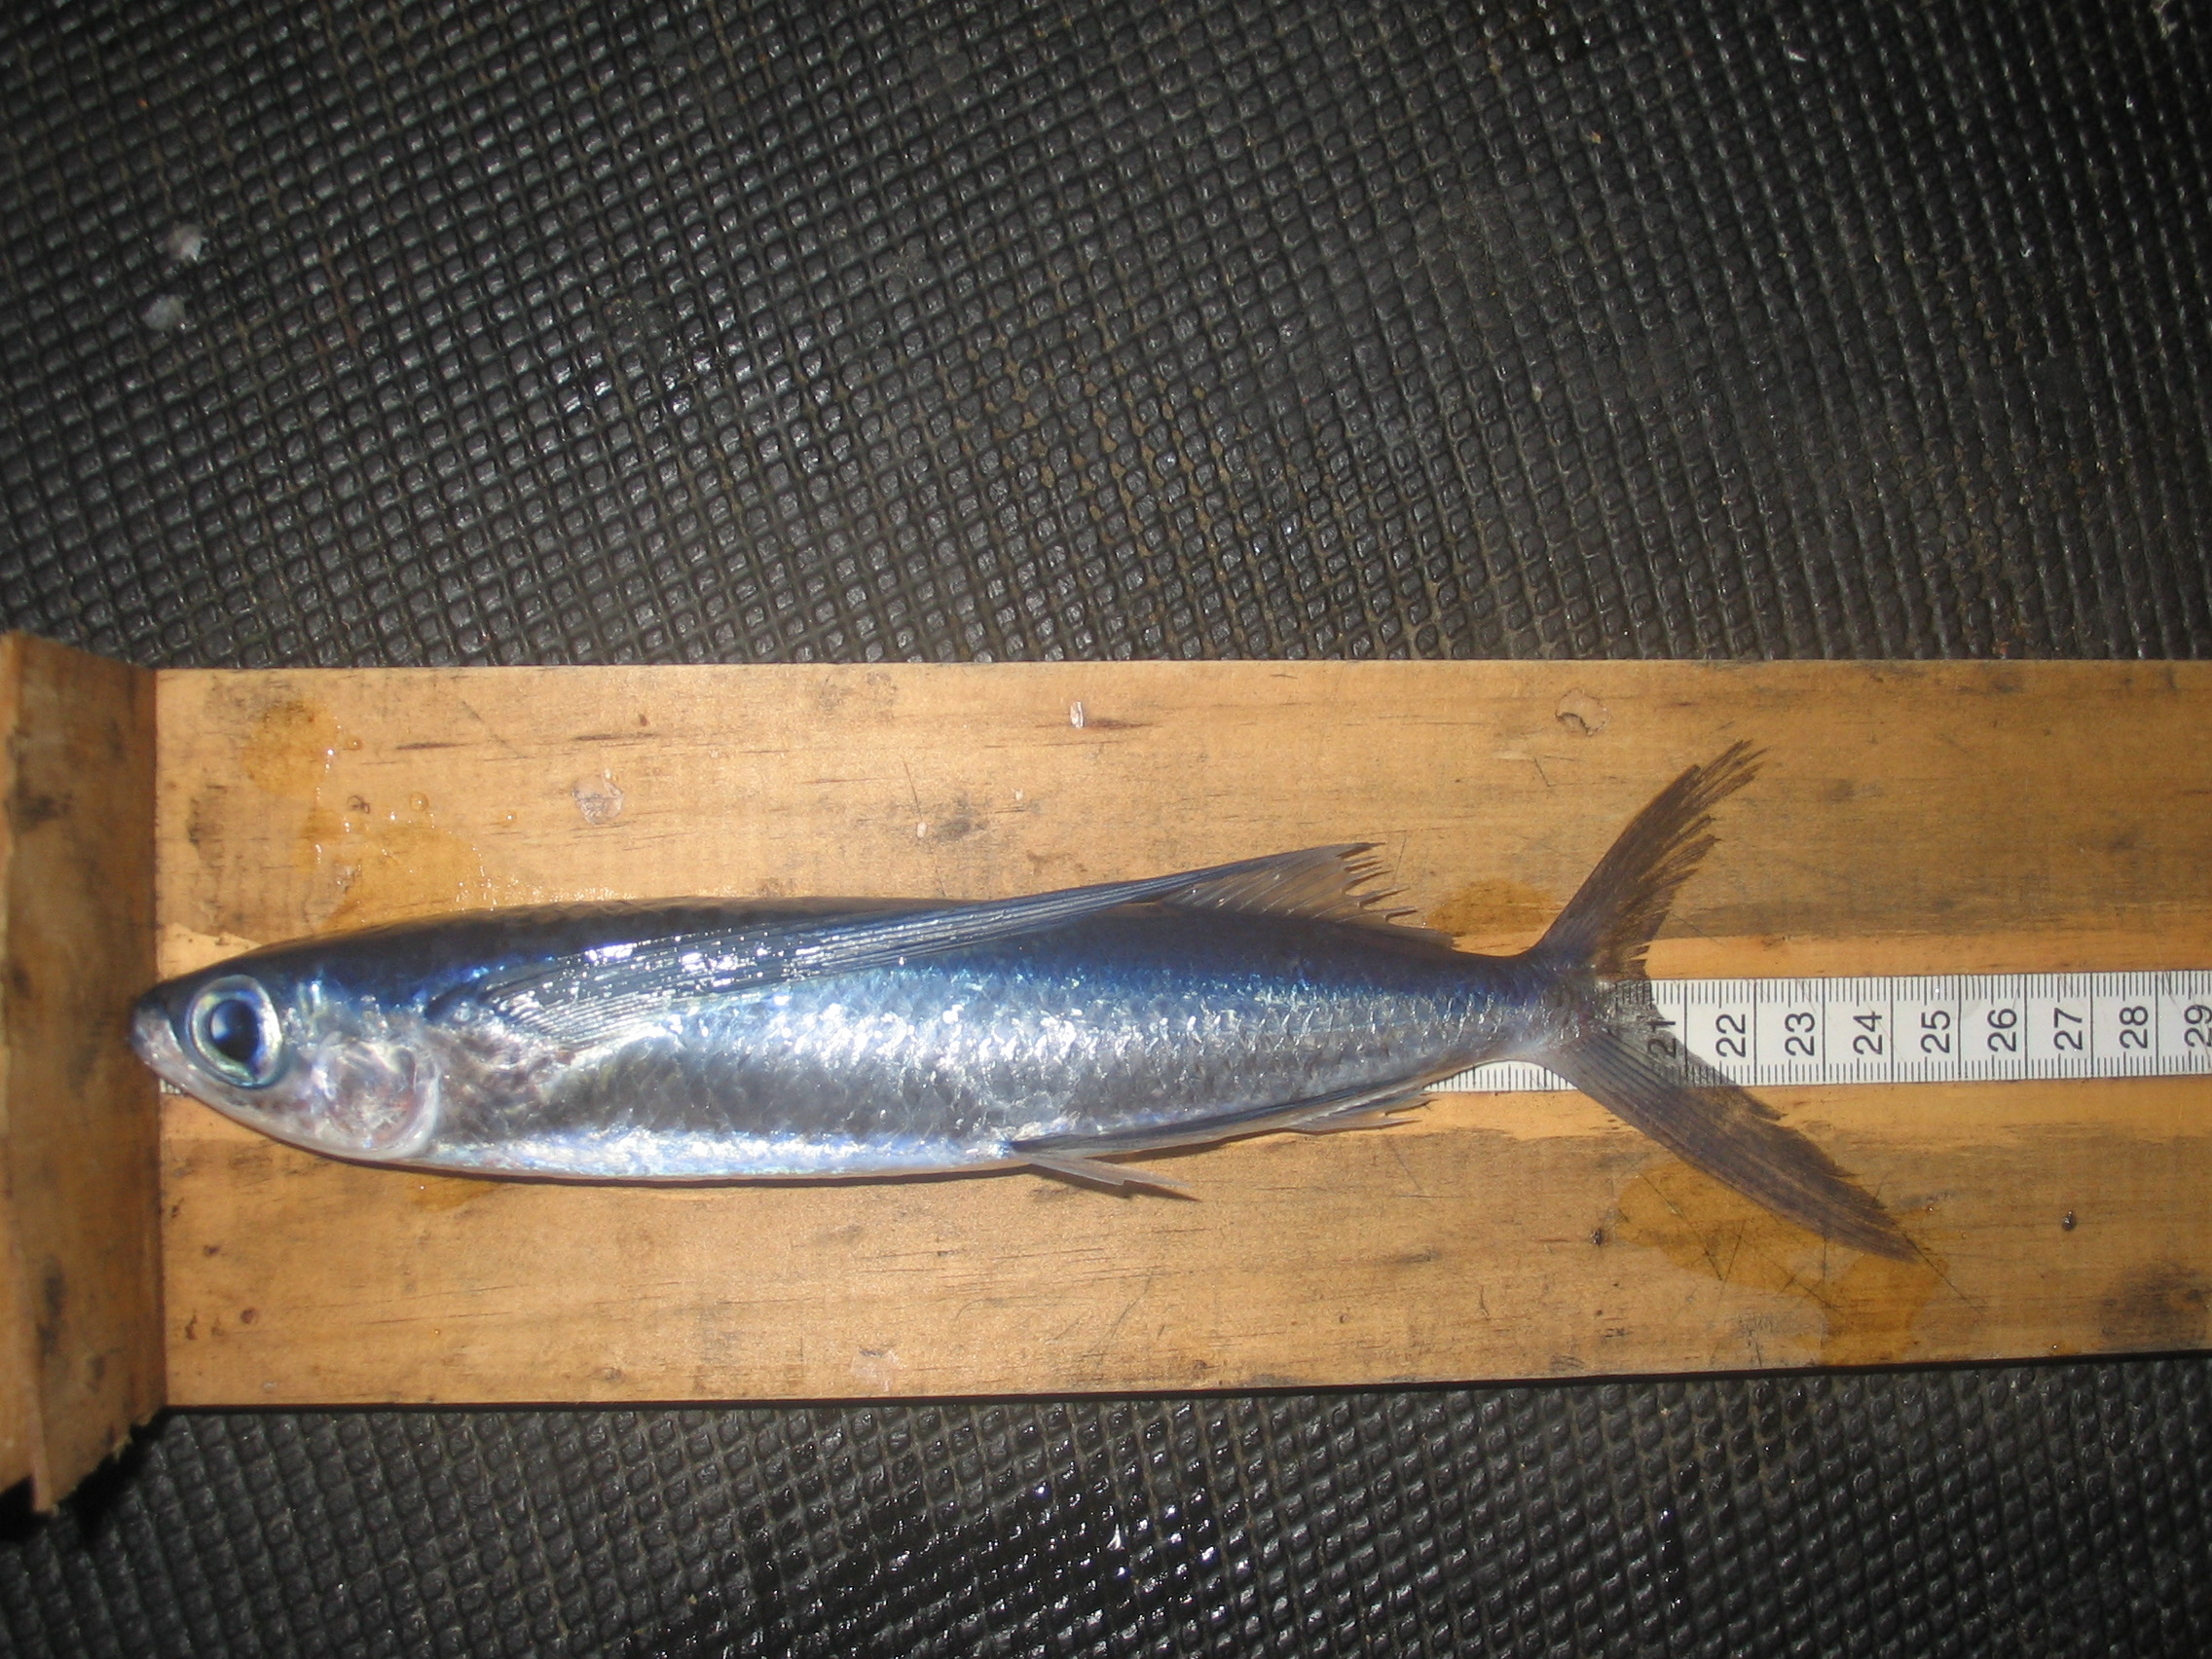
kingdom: Animalia
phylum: Chordata
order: Beloniformes
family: Exocoetidae
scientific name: Exocoetidae
